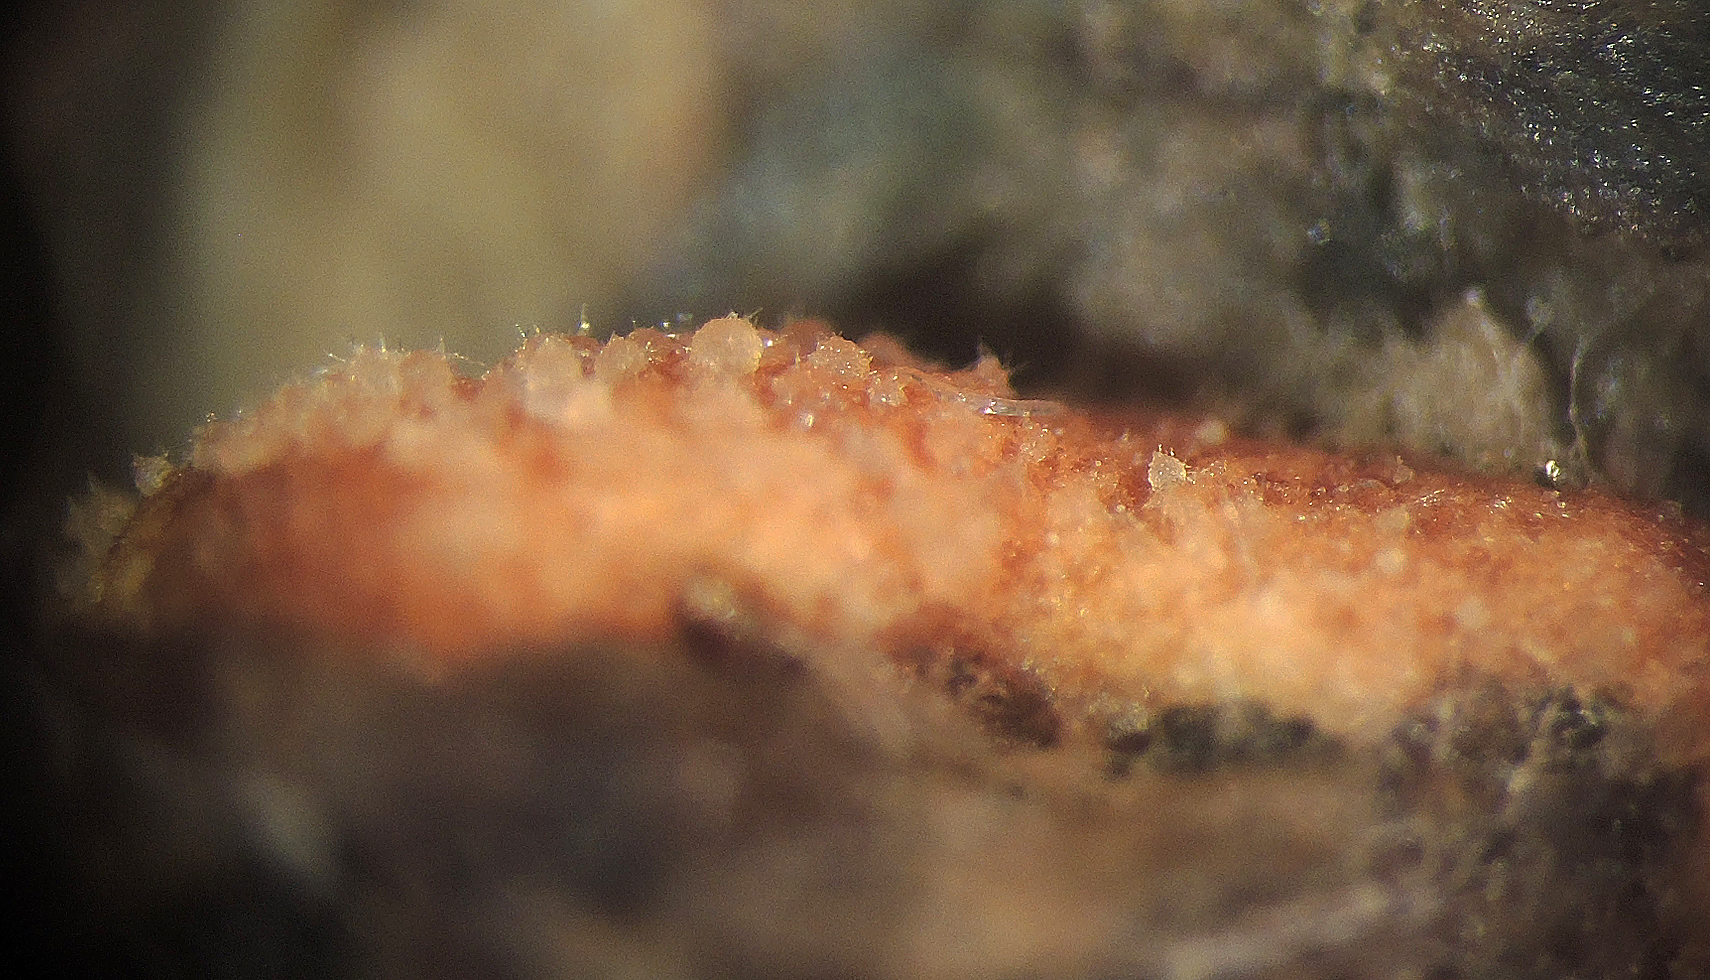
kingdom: Fungi
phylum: Ascomycota
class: Sordariomycetes
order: Hypocreales
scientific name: Hypocreales
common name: kødkerneordenen
